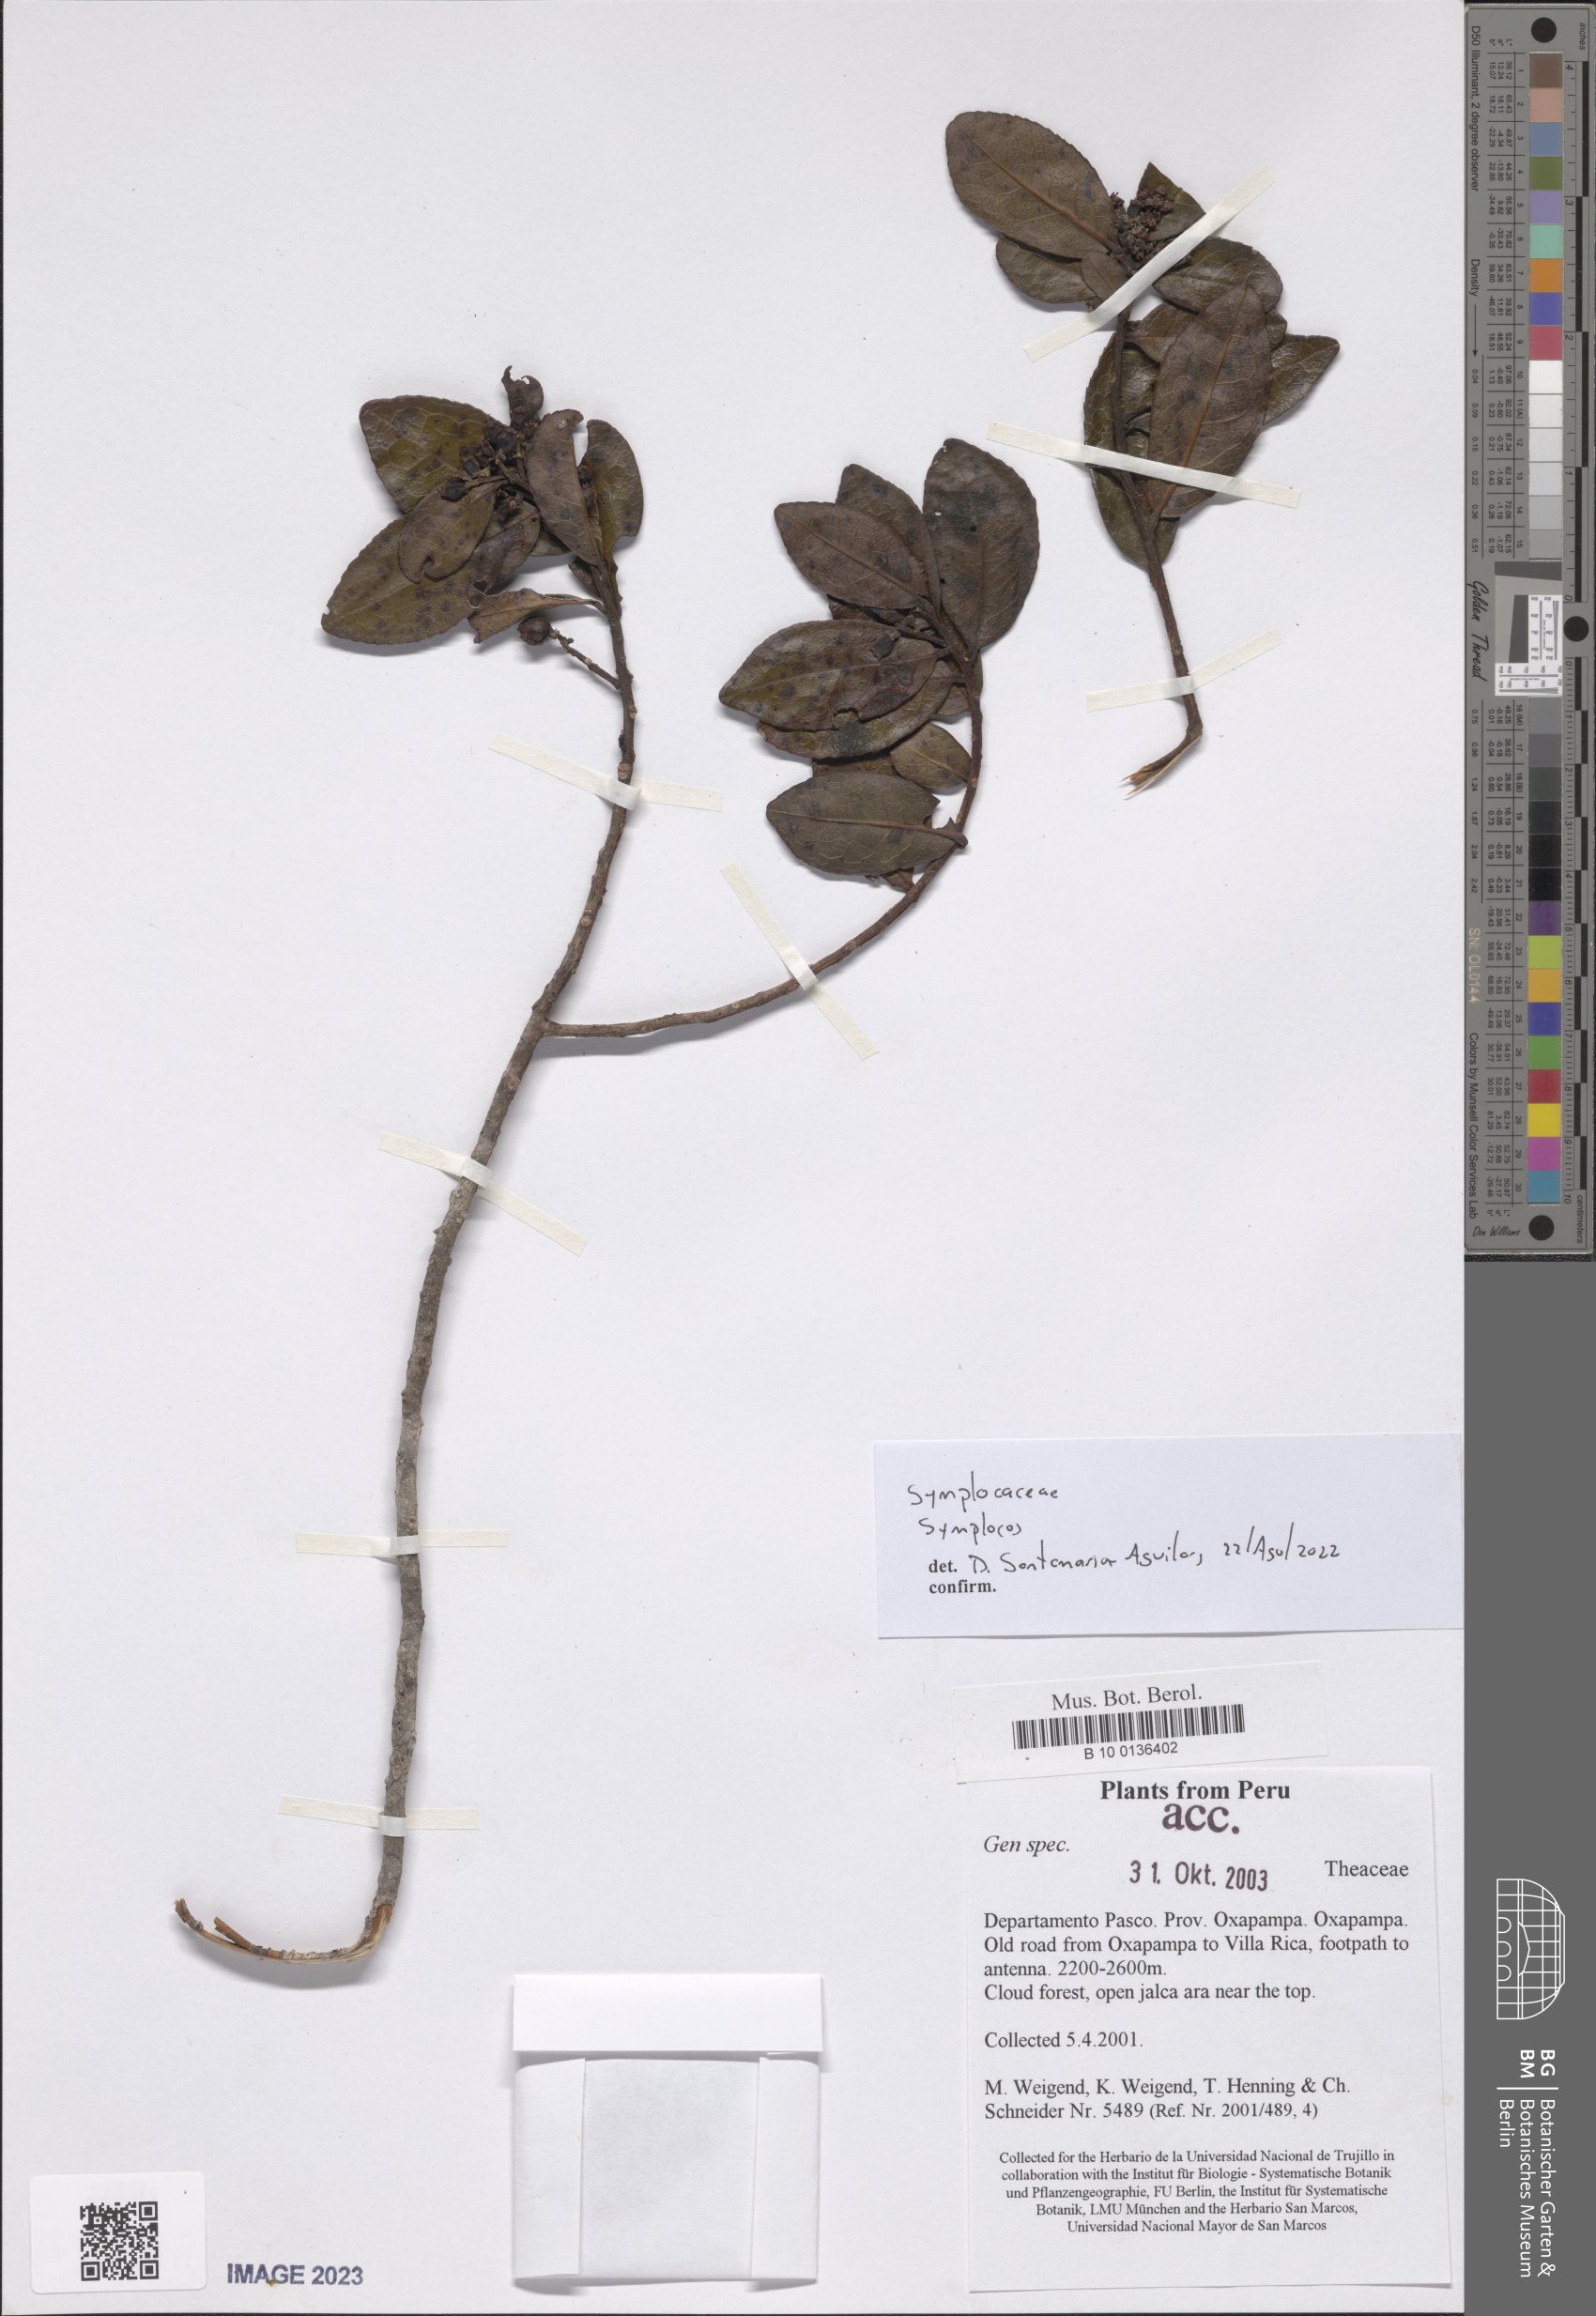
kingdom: Plantae
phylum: Tracheophyta
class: Magnoliopsida
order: Ericales
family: Symplocaceae
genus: Symplocos
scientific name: Symplocos
